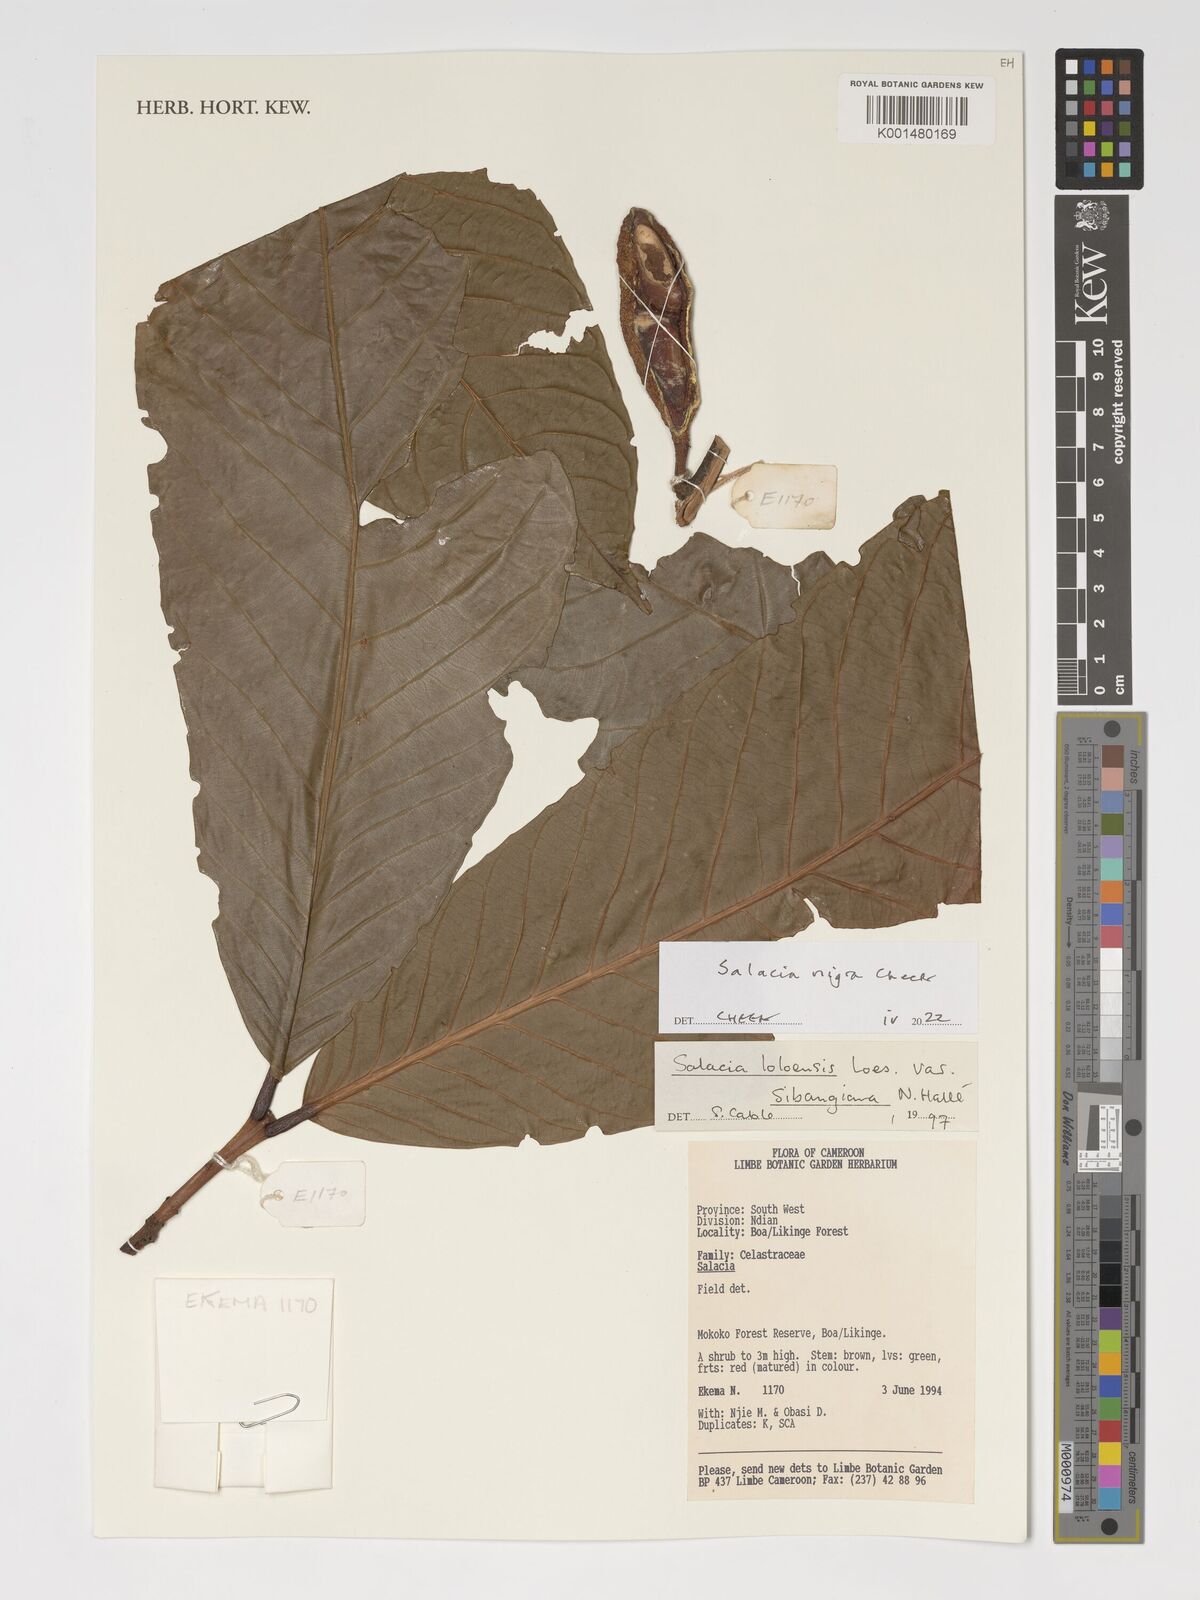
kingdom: Plantae
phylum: Tracheophyta
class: Magnoliopsida
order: Celastrales
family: Celastraceae
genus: Salacia
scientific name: Salacia nigra
